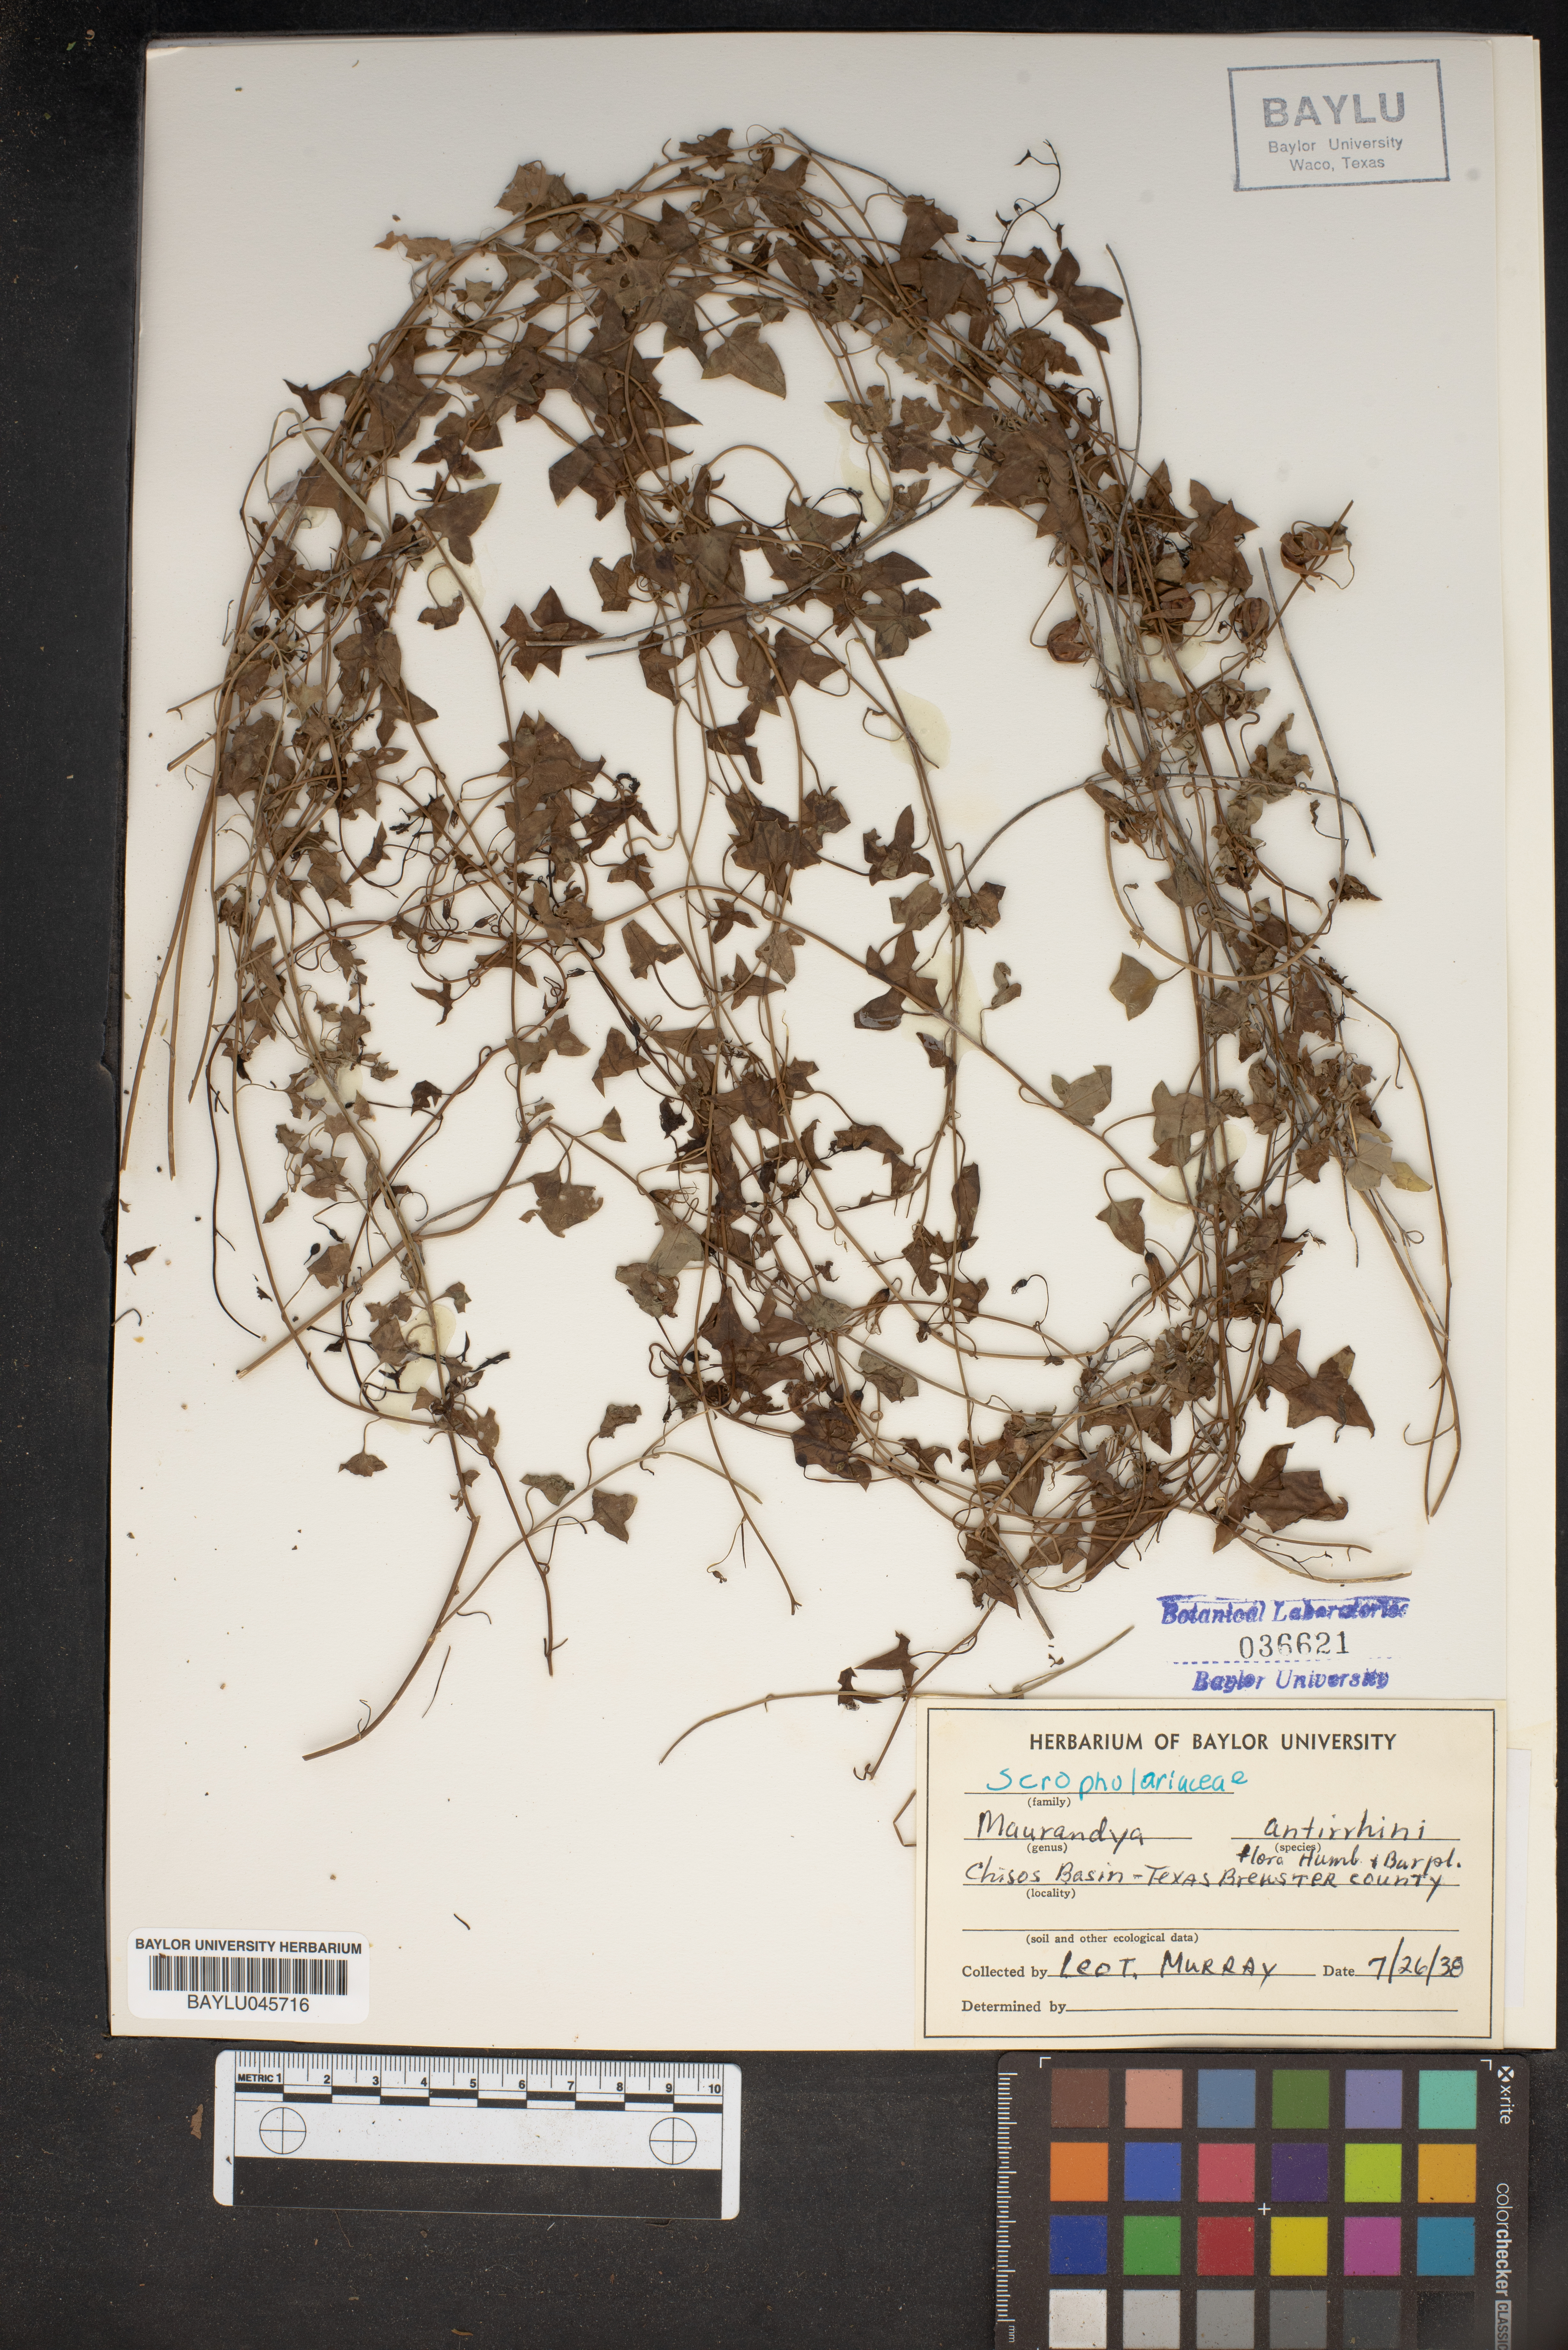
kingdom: Plantae
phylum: Tracheophyta
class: Magnoliopsida
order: Lamiales
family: Plantaginaceae
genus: Maurandella
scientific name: Maurandella antirrhiniflora
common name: Violet twining-snapdragon
